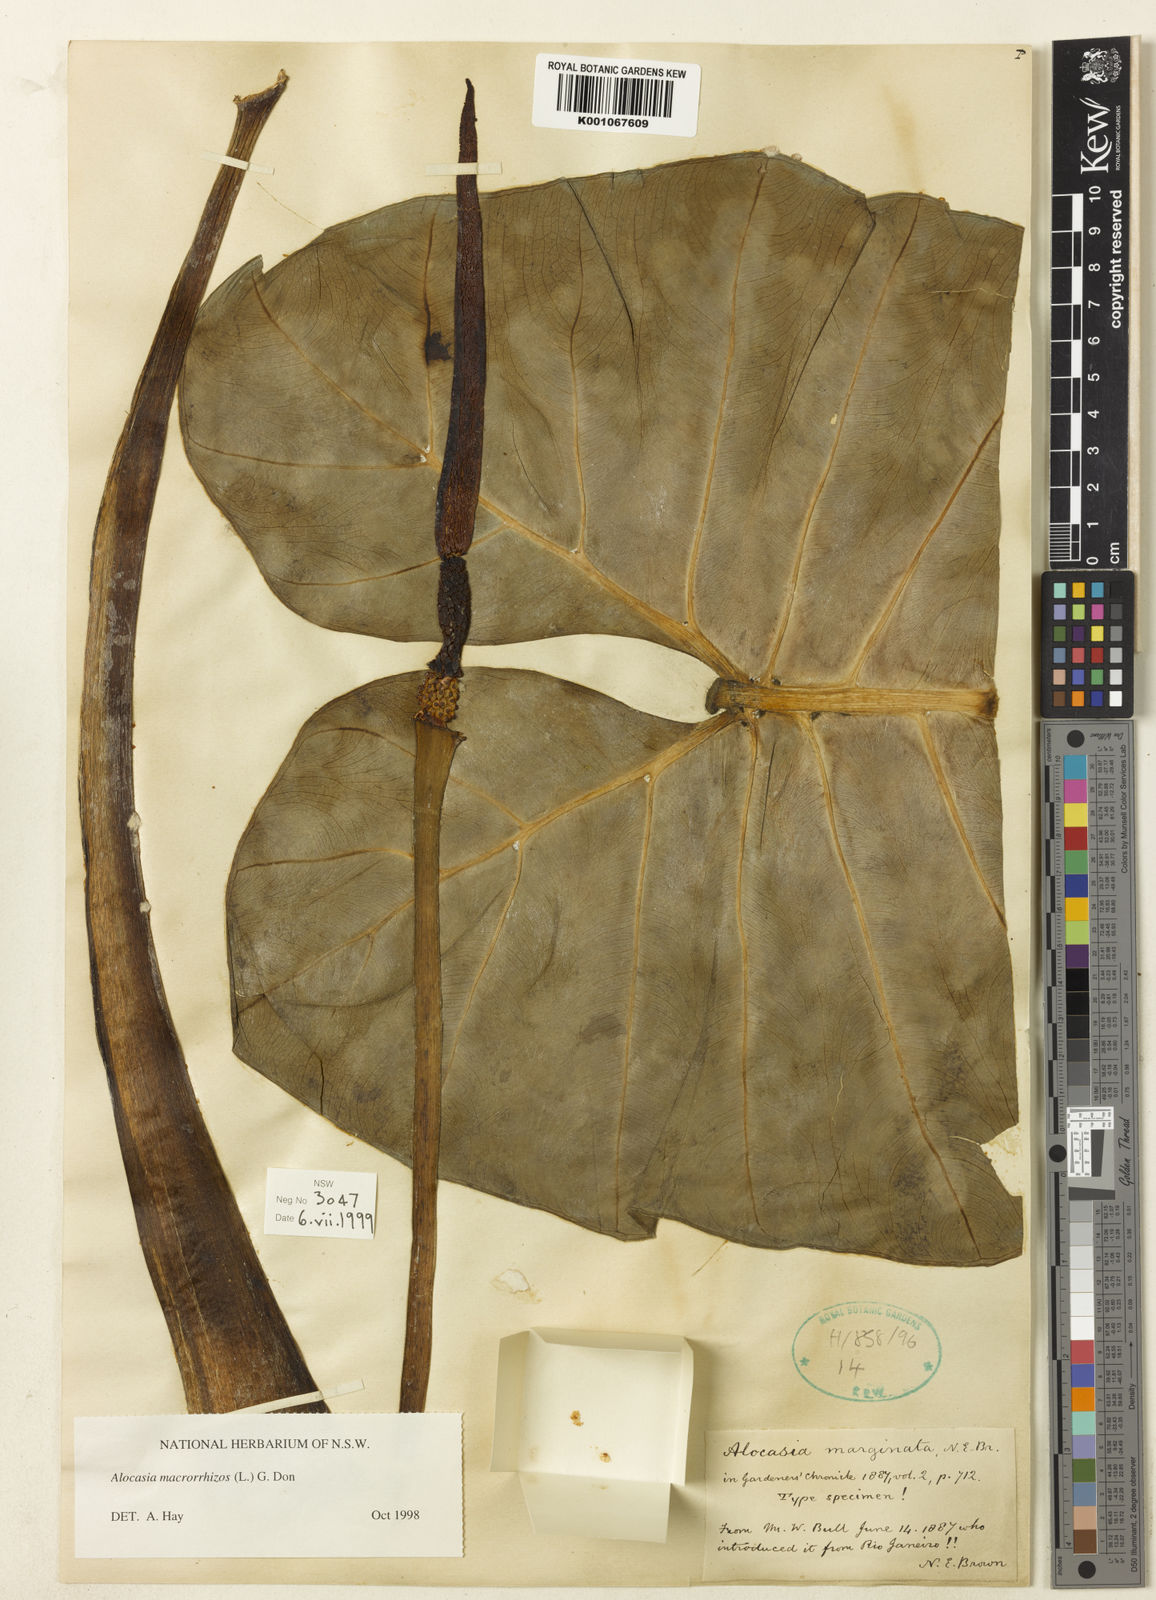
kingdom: Plantae
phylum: Tracheophyta
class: Liliopsida
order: Alismatales
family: Araceae
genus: Alocasia
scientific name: Alocasia macrorrhizos
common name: Giant taro
